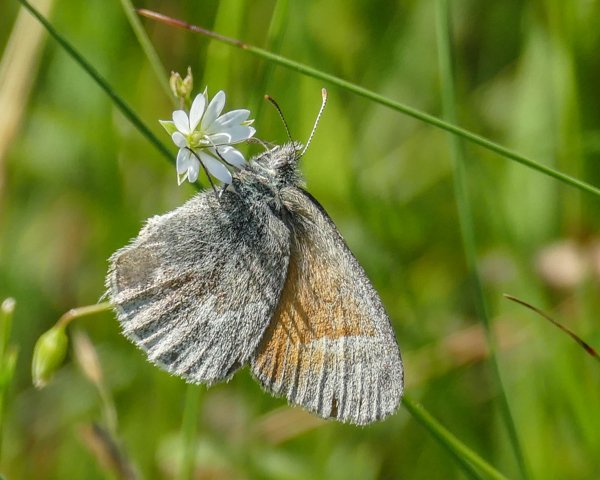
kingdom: Animalia
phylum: Arthropoda
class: Insecta
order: Lepidoptera
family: Nymphalidae
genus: Coenonympha
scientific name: Coenonympha tullia
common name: Large Heath
